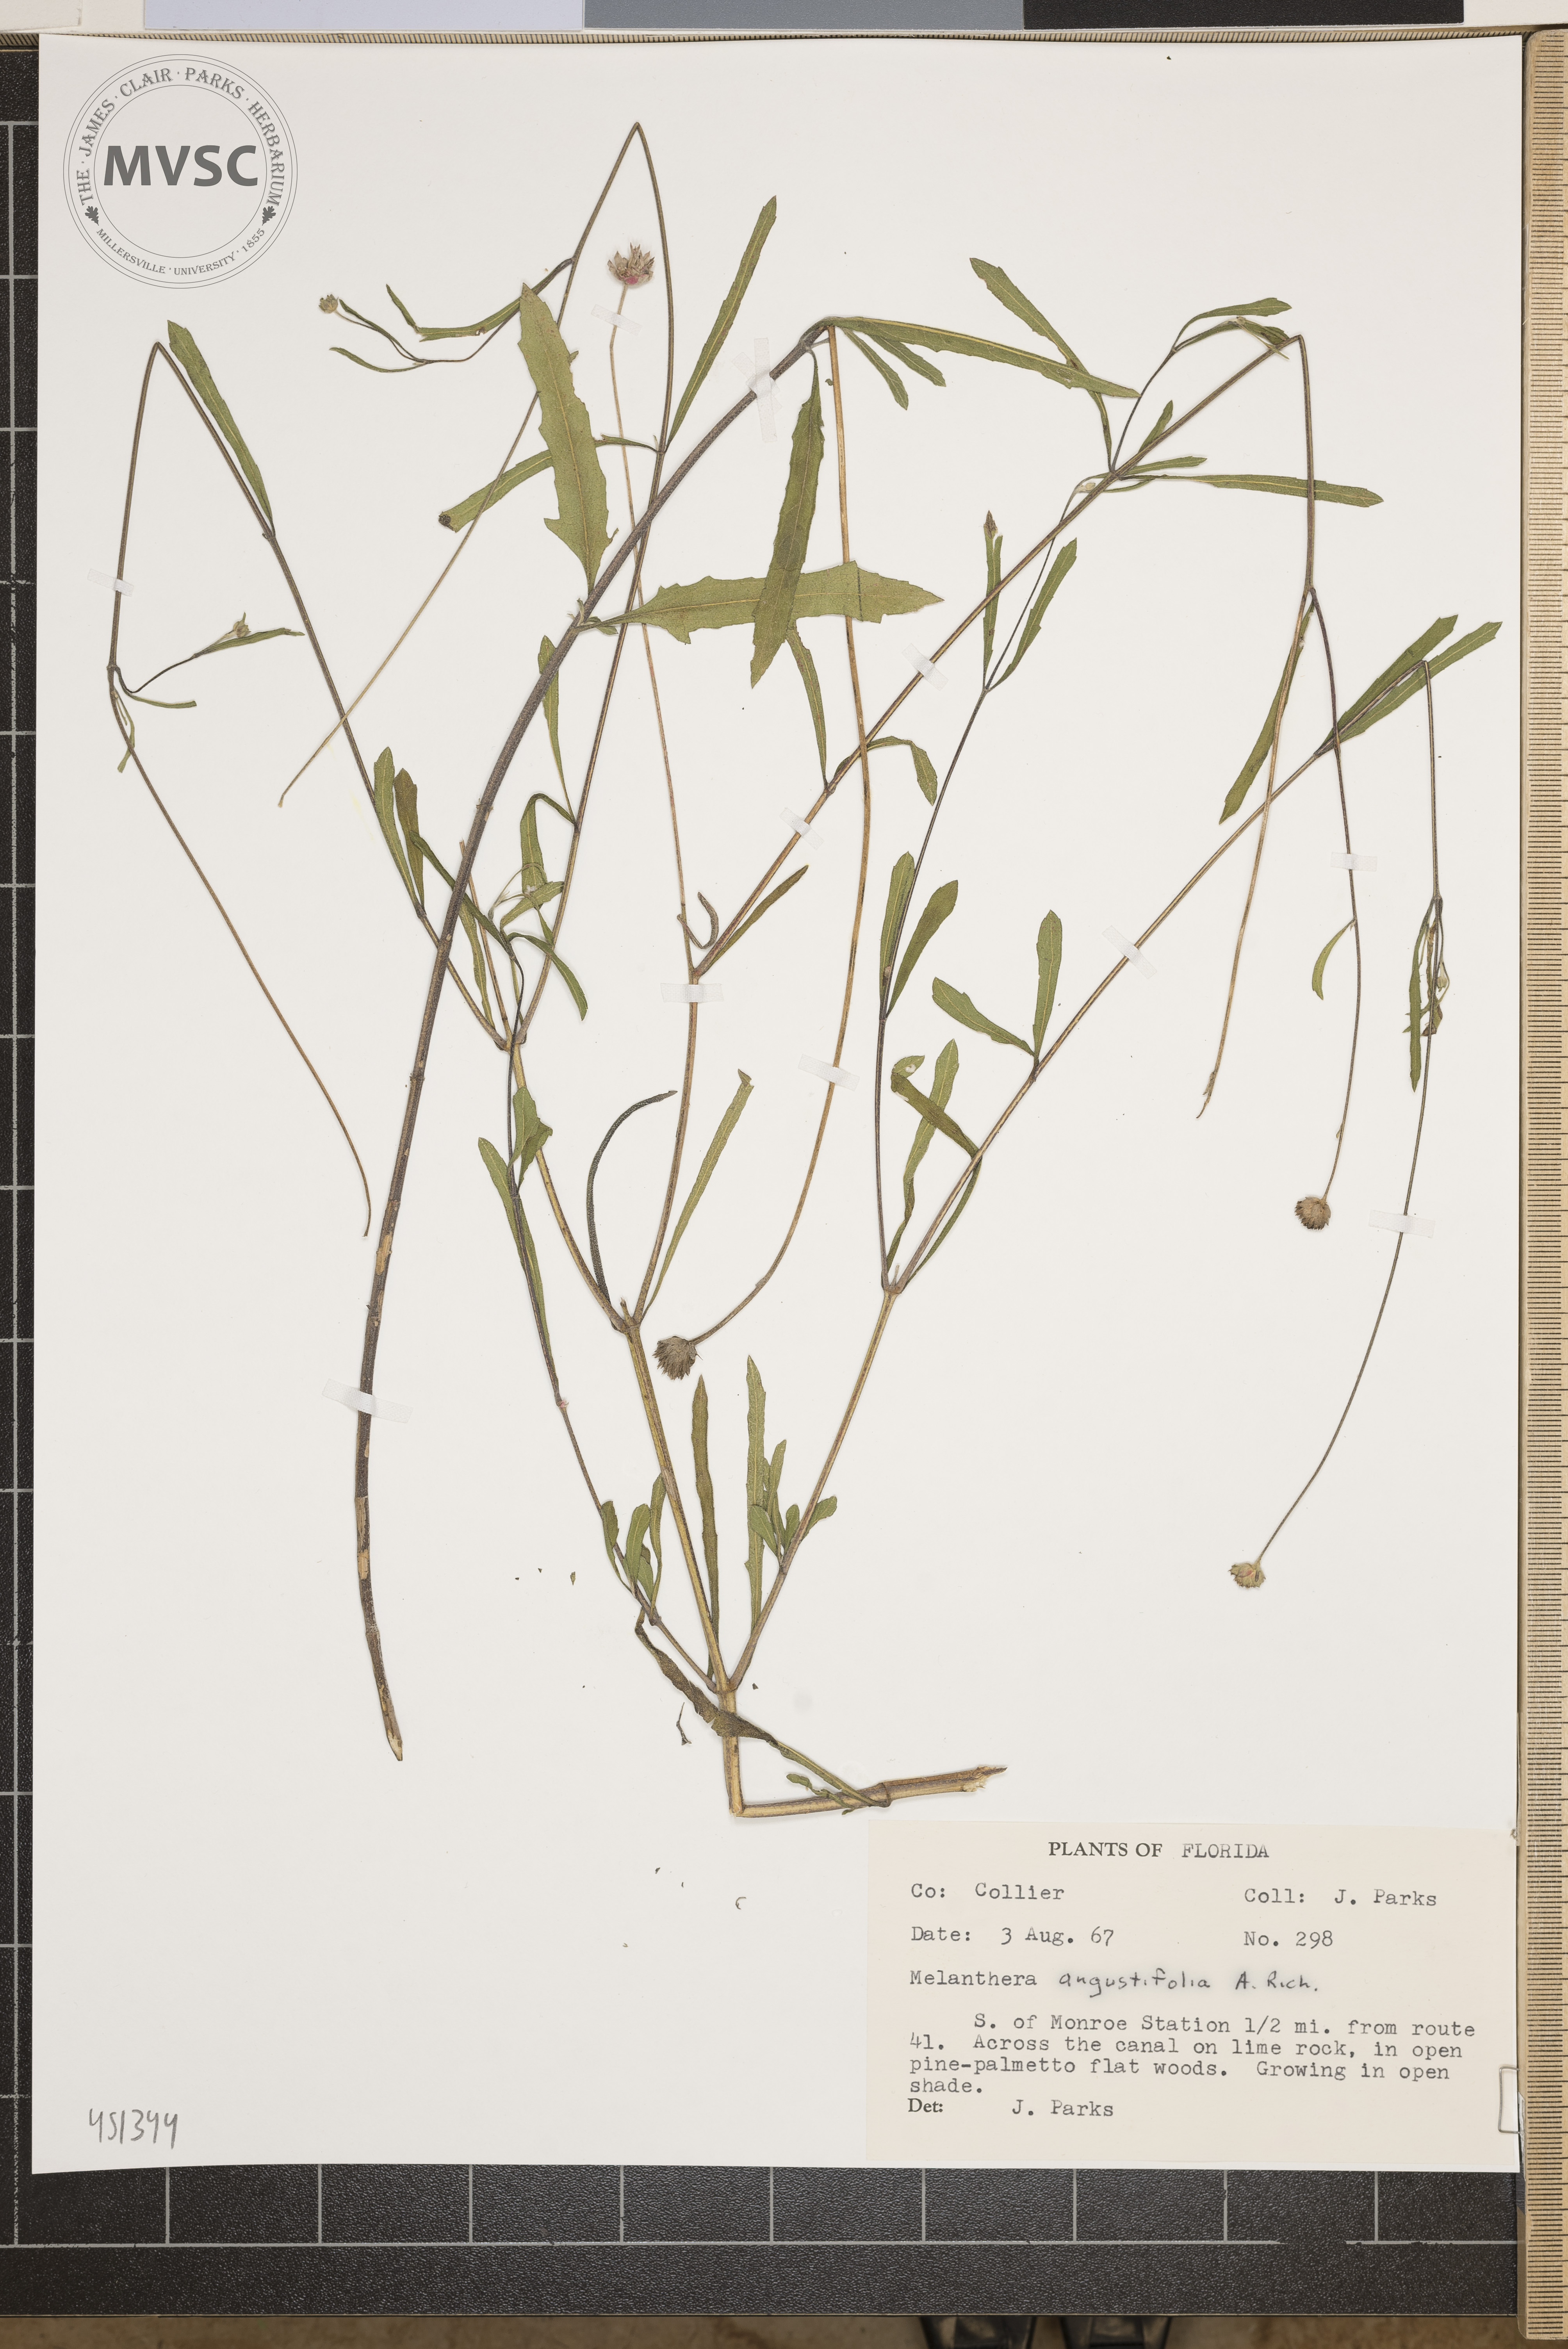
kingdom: Plantae
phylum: Tracheophyta
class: Magnoliopsida
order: Asterales
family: Asteraceae
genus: Melanthera
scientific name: Melanthera nivea
